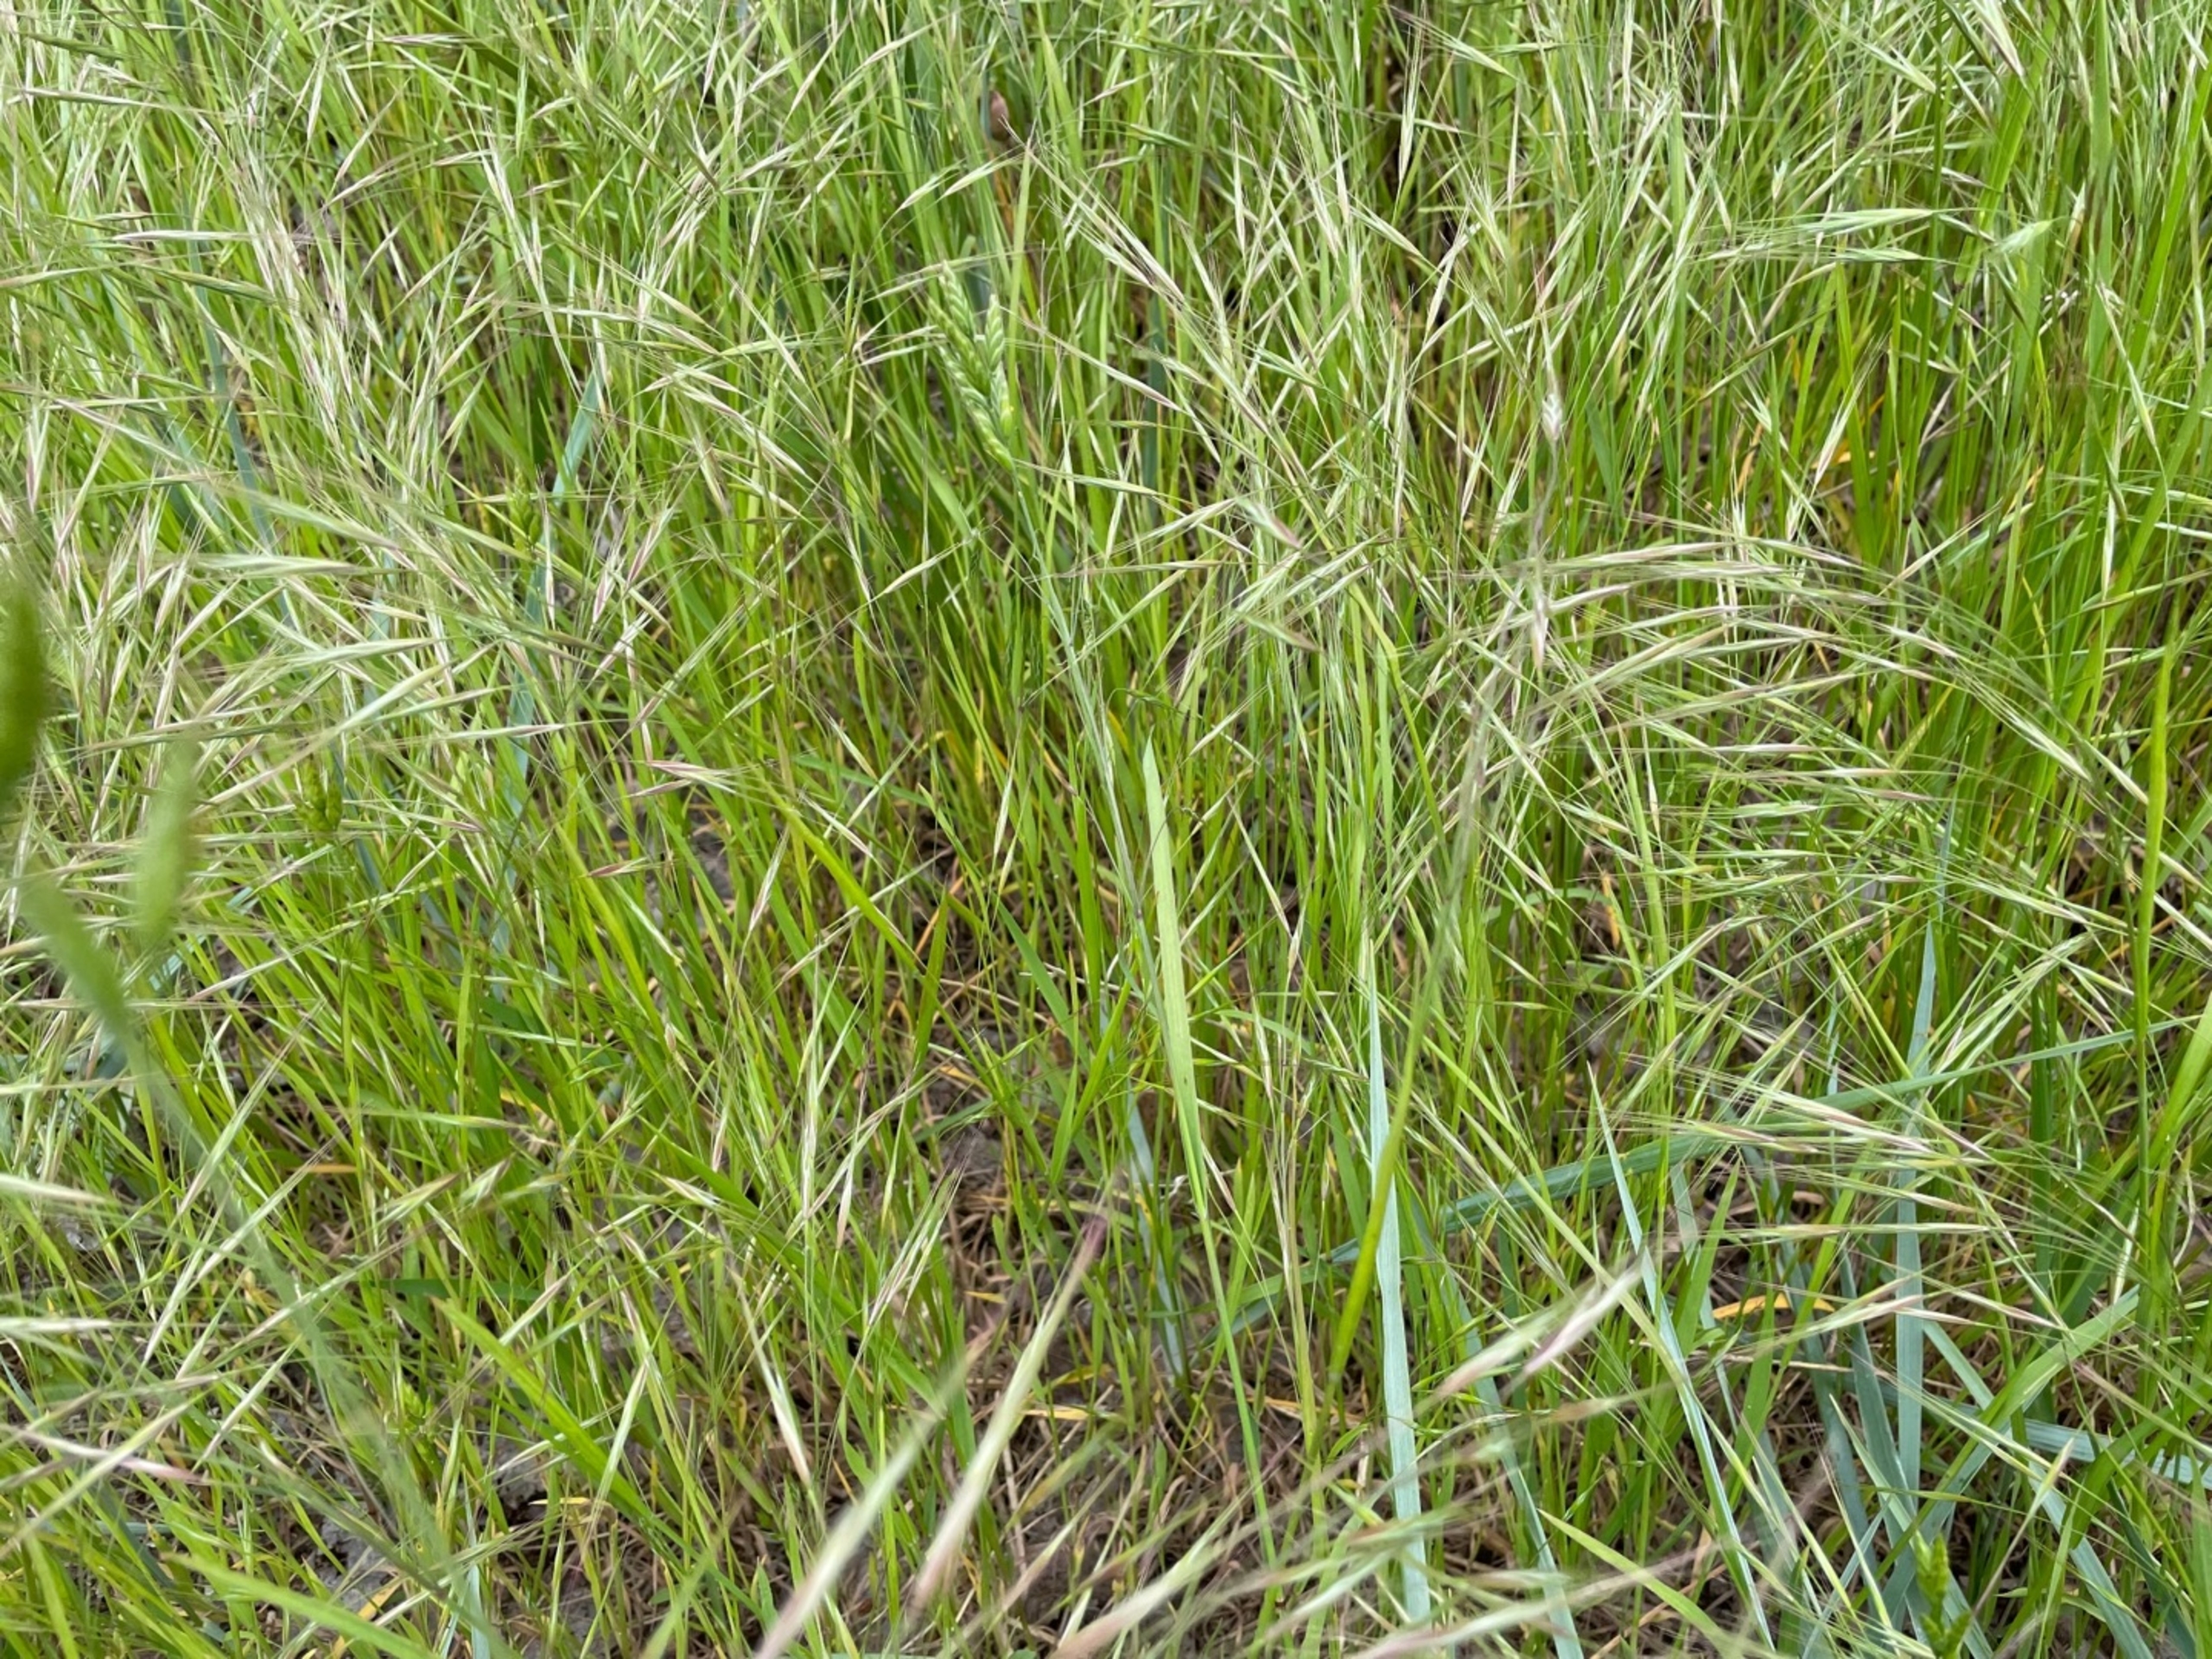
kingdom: Plantae
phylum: Tracheophyta
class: Liliopsida
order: Poales
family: Poaceae
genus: Bromus
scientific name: Bromus sterilis
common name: Gold hejre
